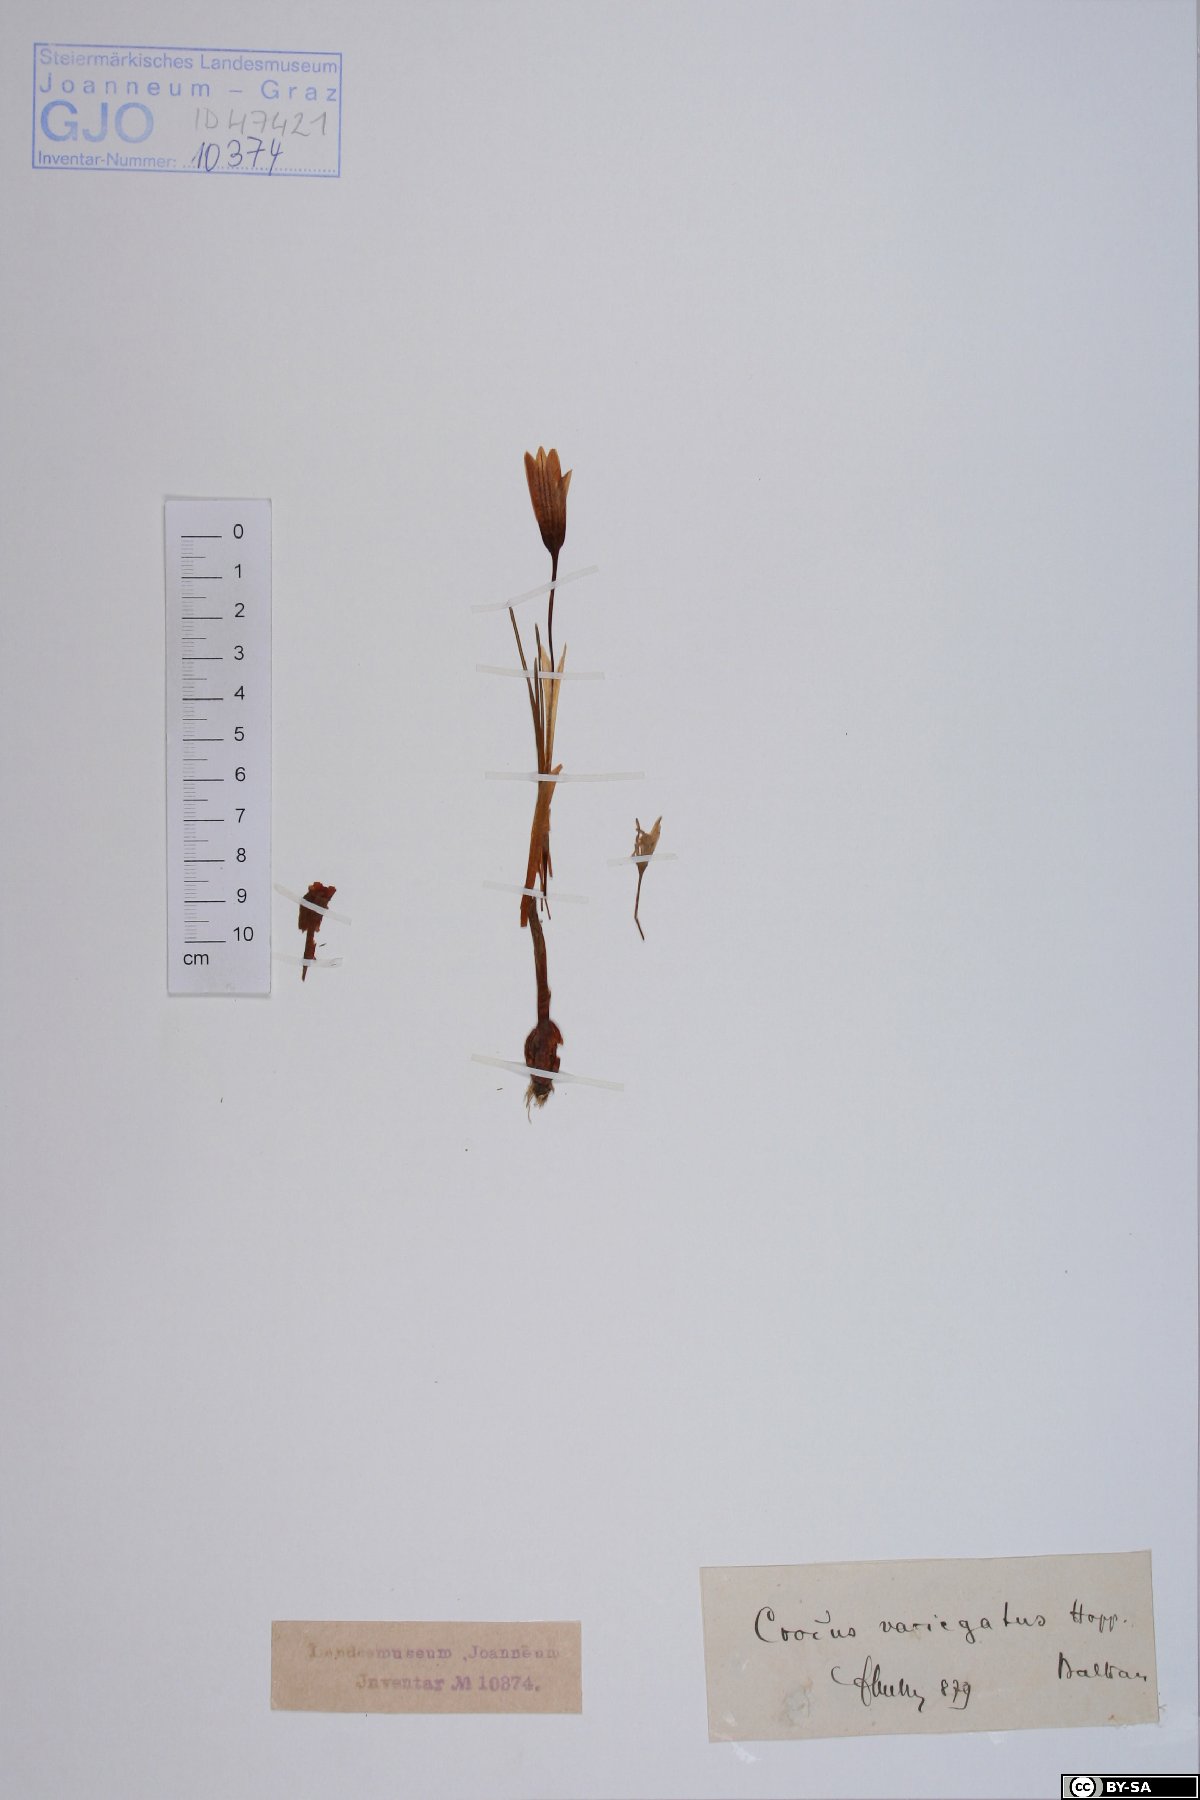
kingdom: Plantae
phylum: Tracheophyta
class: Liliopsida
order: Asparagales
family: Iridaceae
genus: Crocus
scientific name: Crocus variegatus
